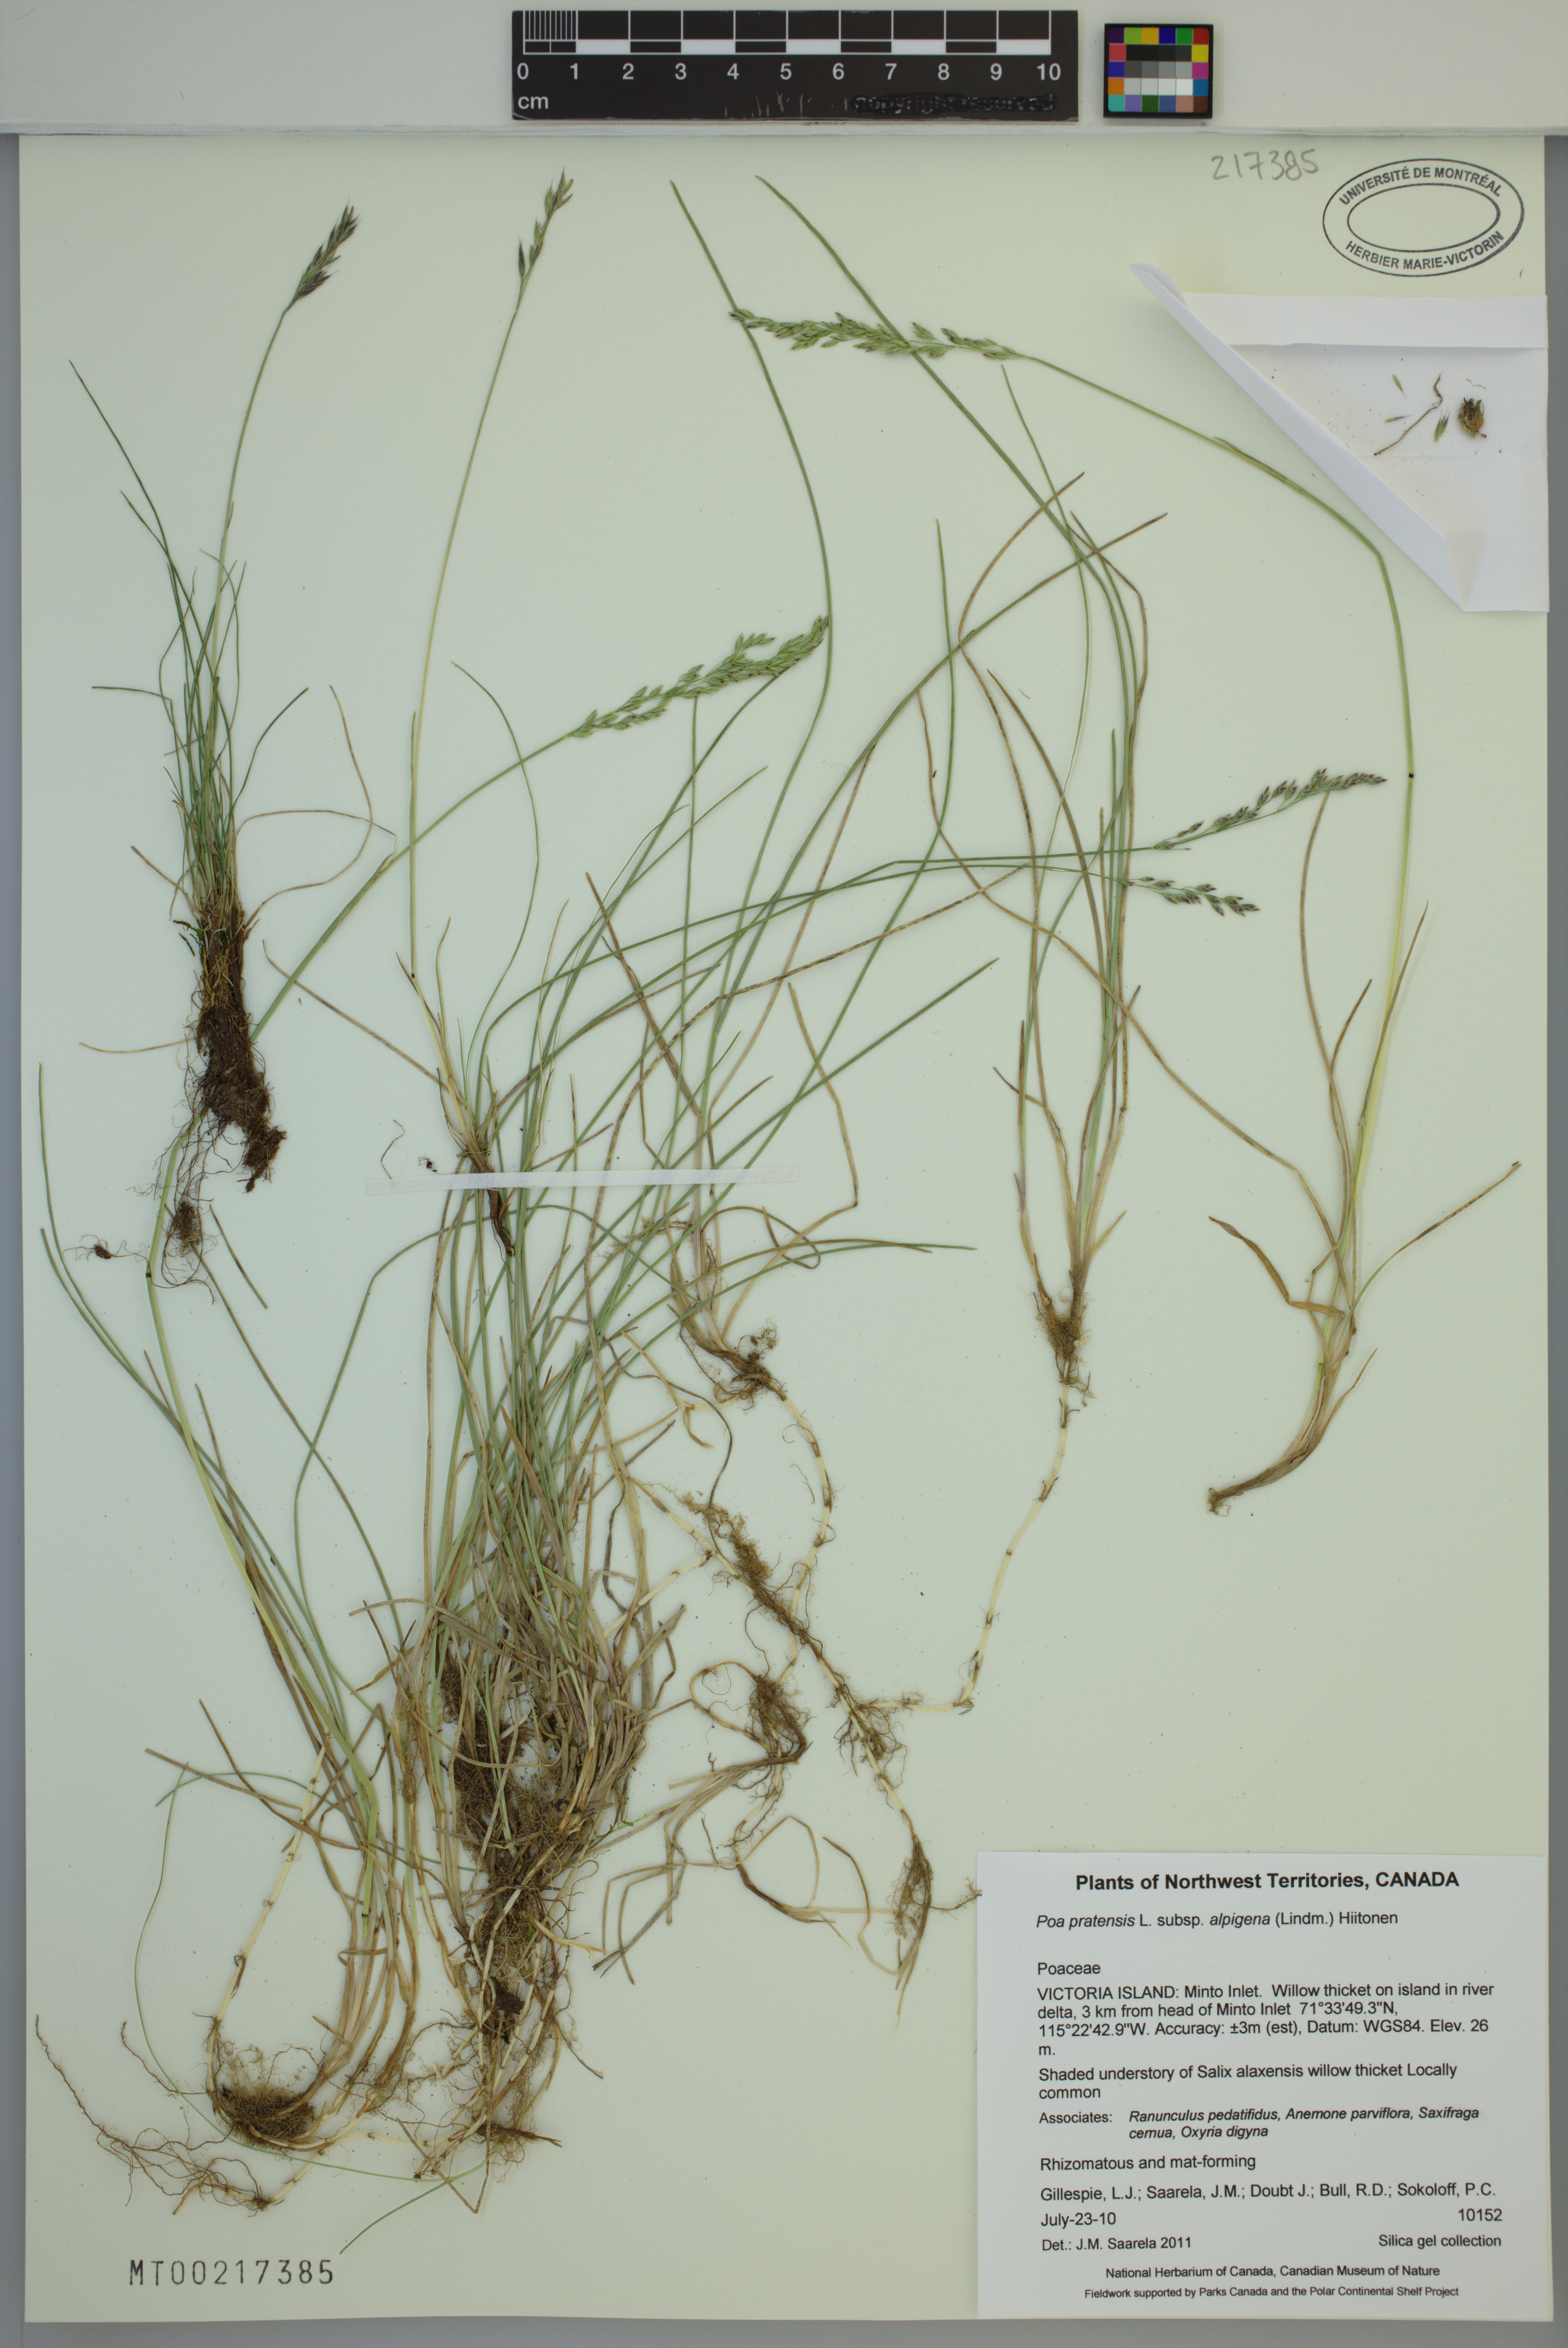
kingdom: Plantae
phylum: Tracheophyta
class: Liliopsida
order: Poales
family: Poaceae
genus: Poa
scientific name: Poa alpigena
